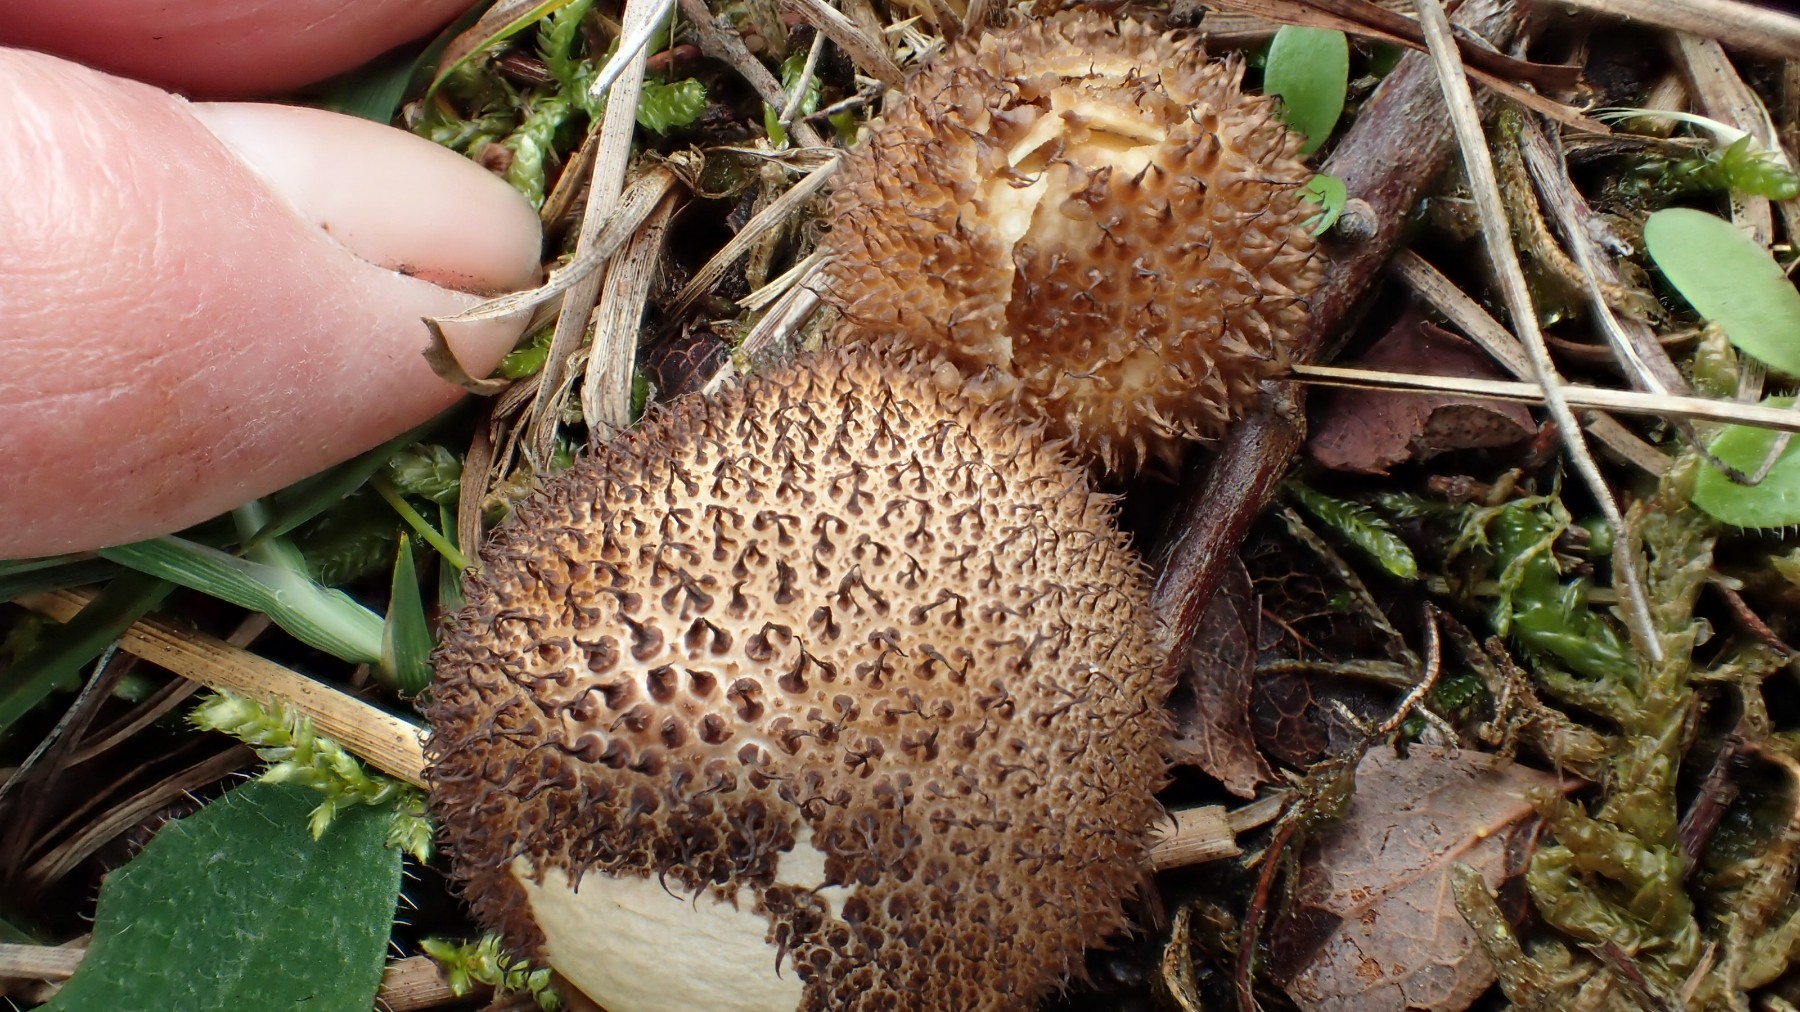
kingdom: Fungi
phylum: Basidiomycota
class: Agaricomycetes
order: Agaricales
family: Lycoperdaceae
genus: Lycoperdon
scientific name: Lycoperdon nigrescens
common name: sortagtig støvbold
